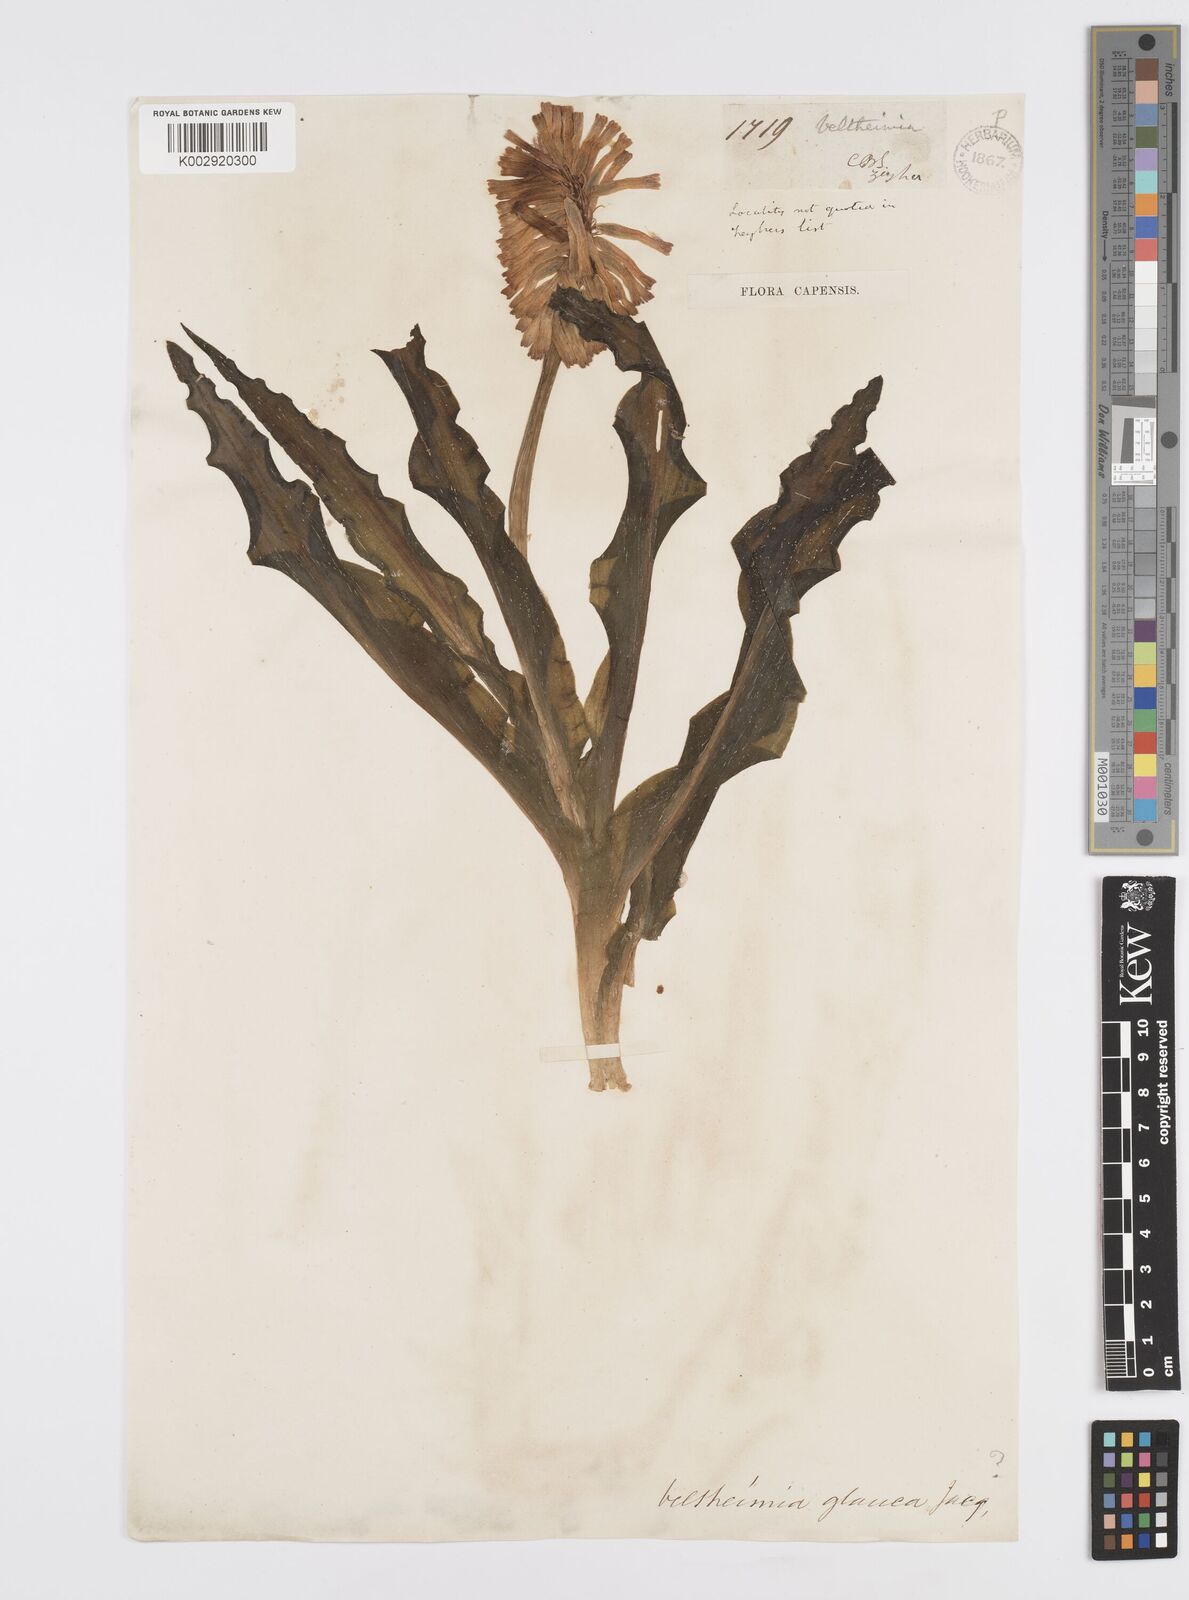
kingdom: Plantae
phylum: Tracheophyta
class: Liliopsida
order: Asparagales
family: Asparagaceae
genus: Veltheimia
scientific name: Veltheimia capensis
